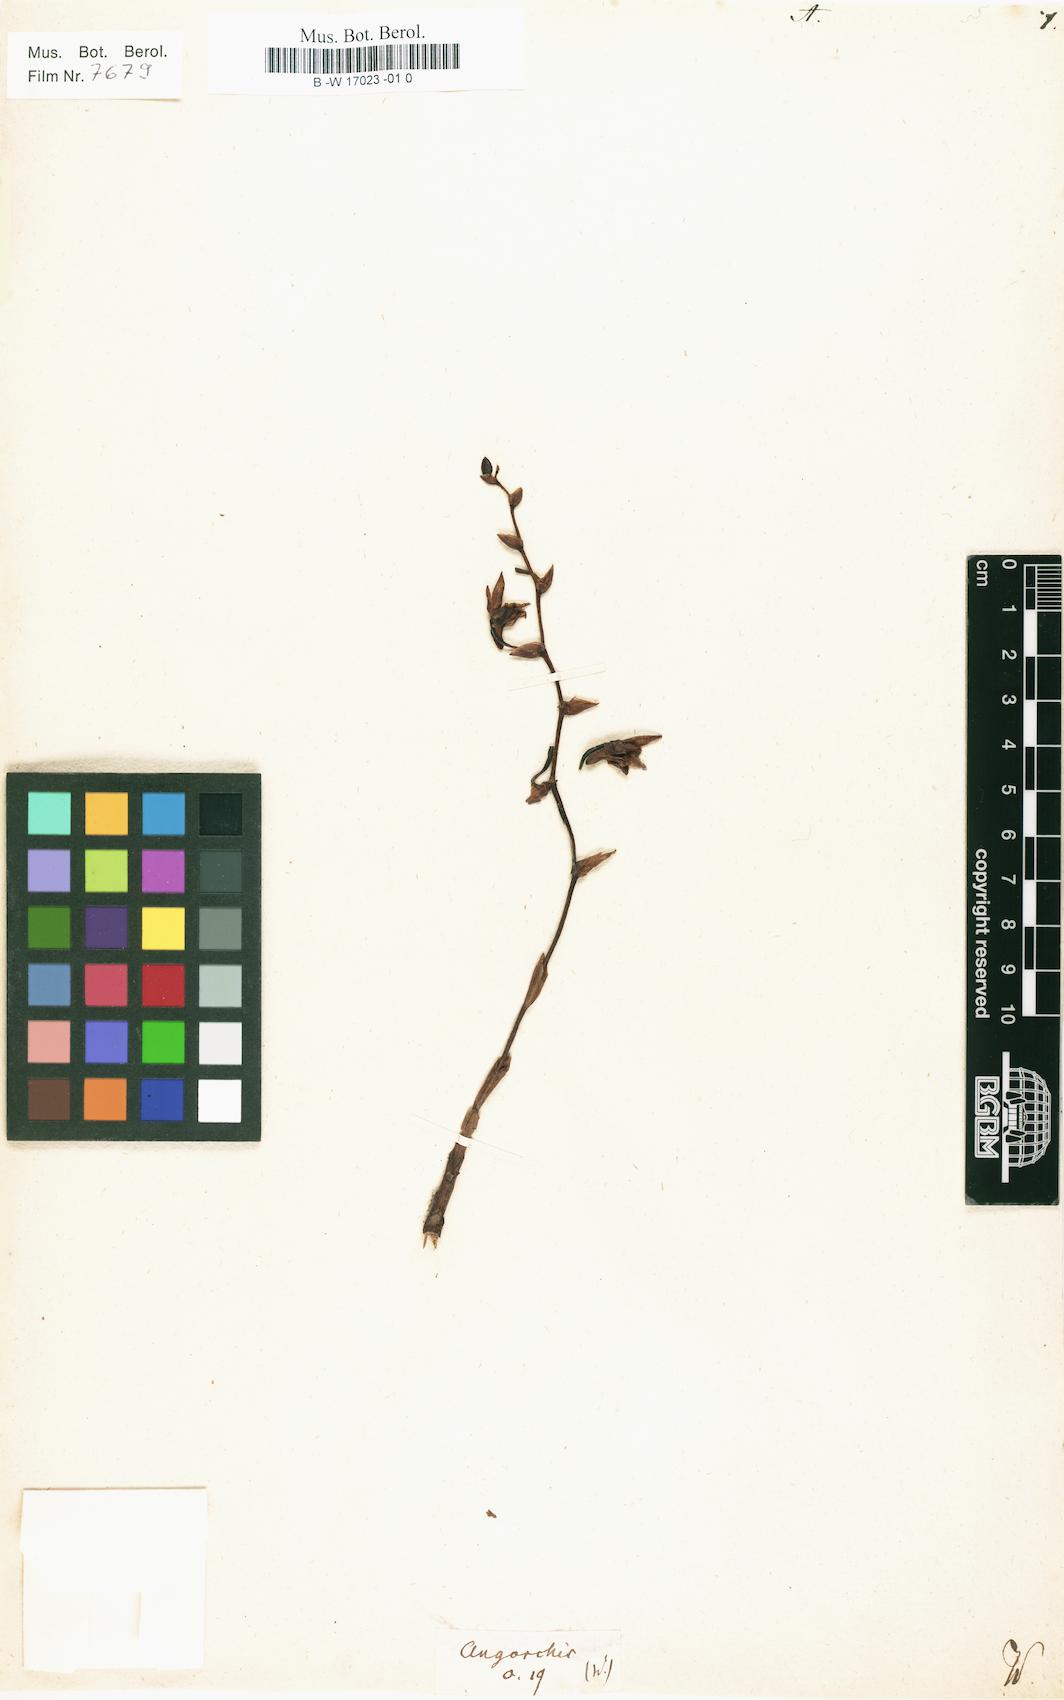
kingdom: Plantae
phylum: Tracheophyta
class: Liliopsida
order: Asparagales
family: Orchidaceae
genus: Angorchis
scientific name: Angorchis
